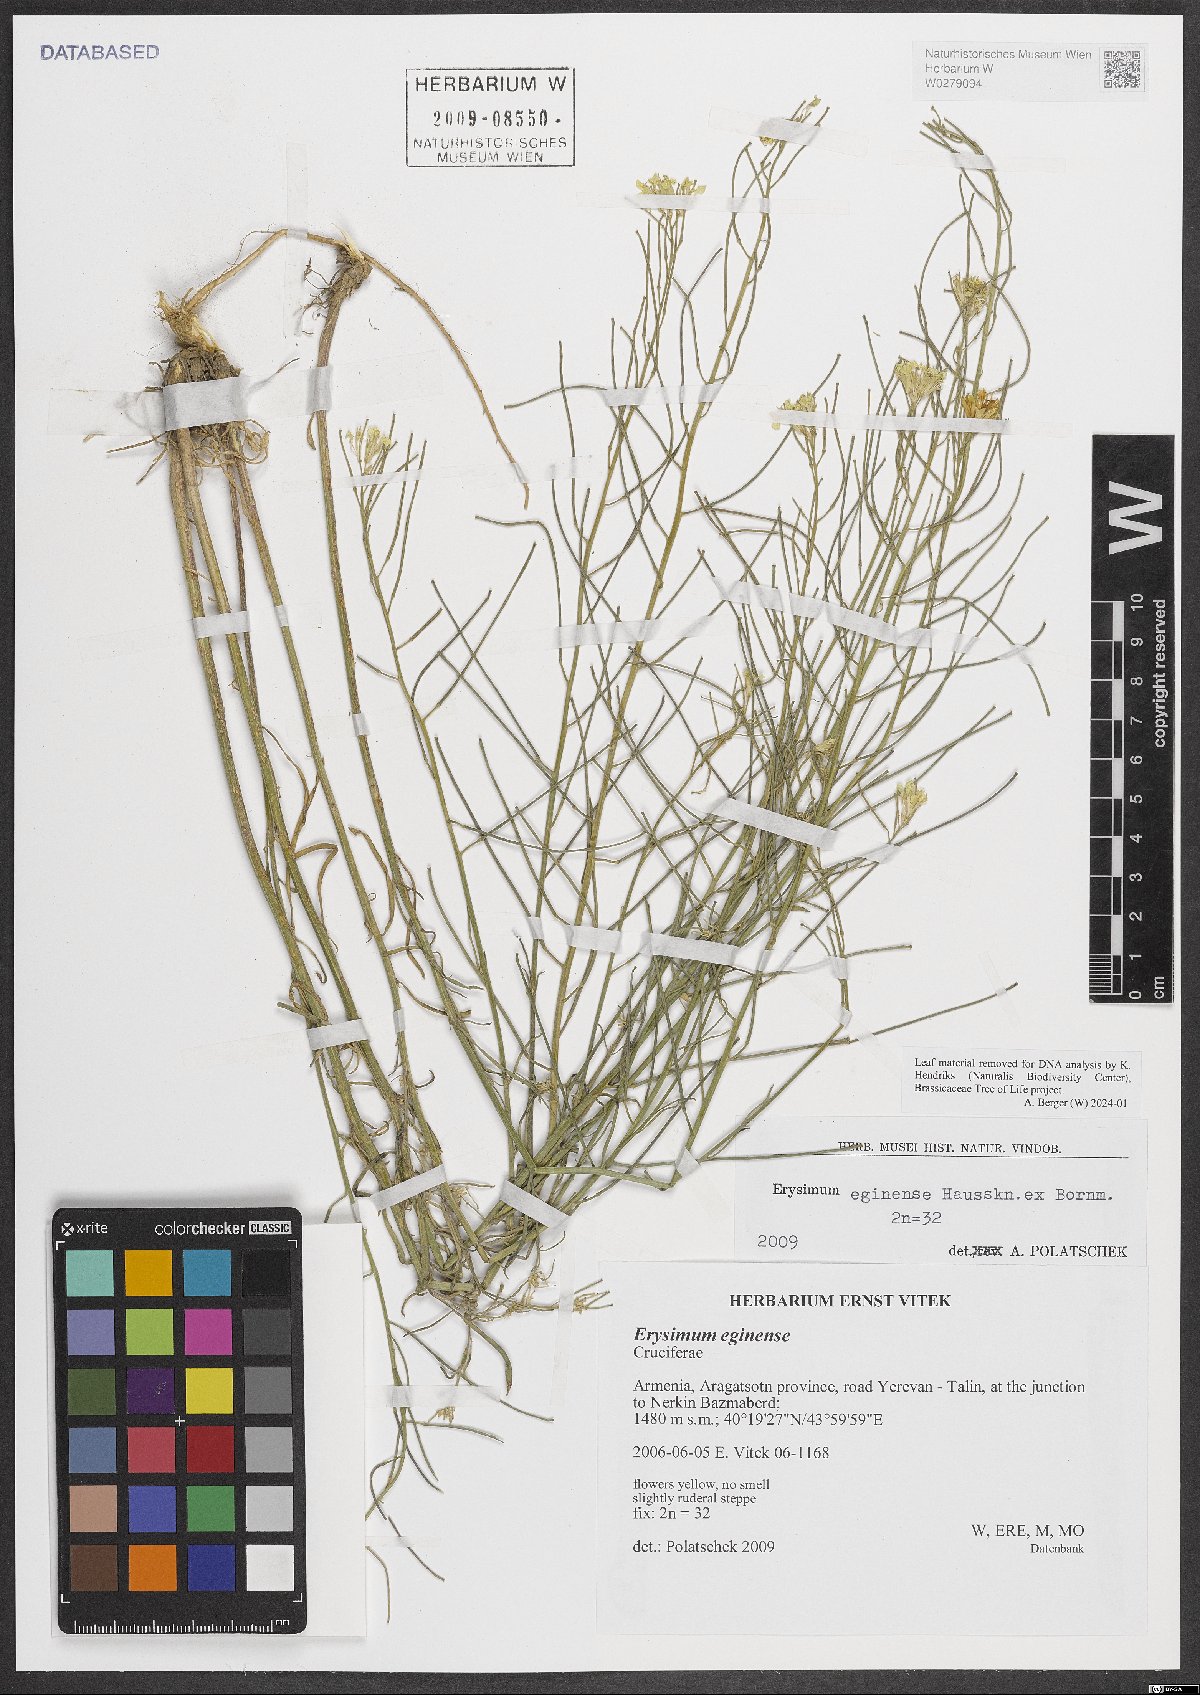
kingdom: Plantae
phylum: Tracheophyta
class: Magnoliopsida
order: Brassicales
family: Brassicaceae
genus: Erysimum
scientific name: Erysimum smyrnaeum
